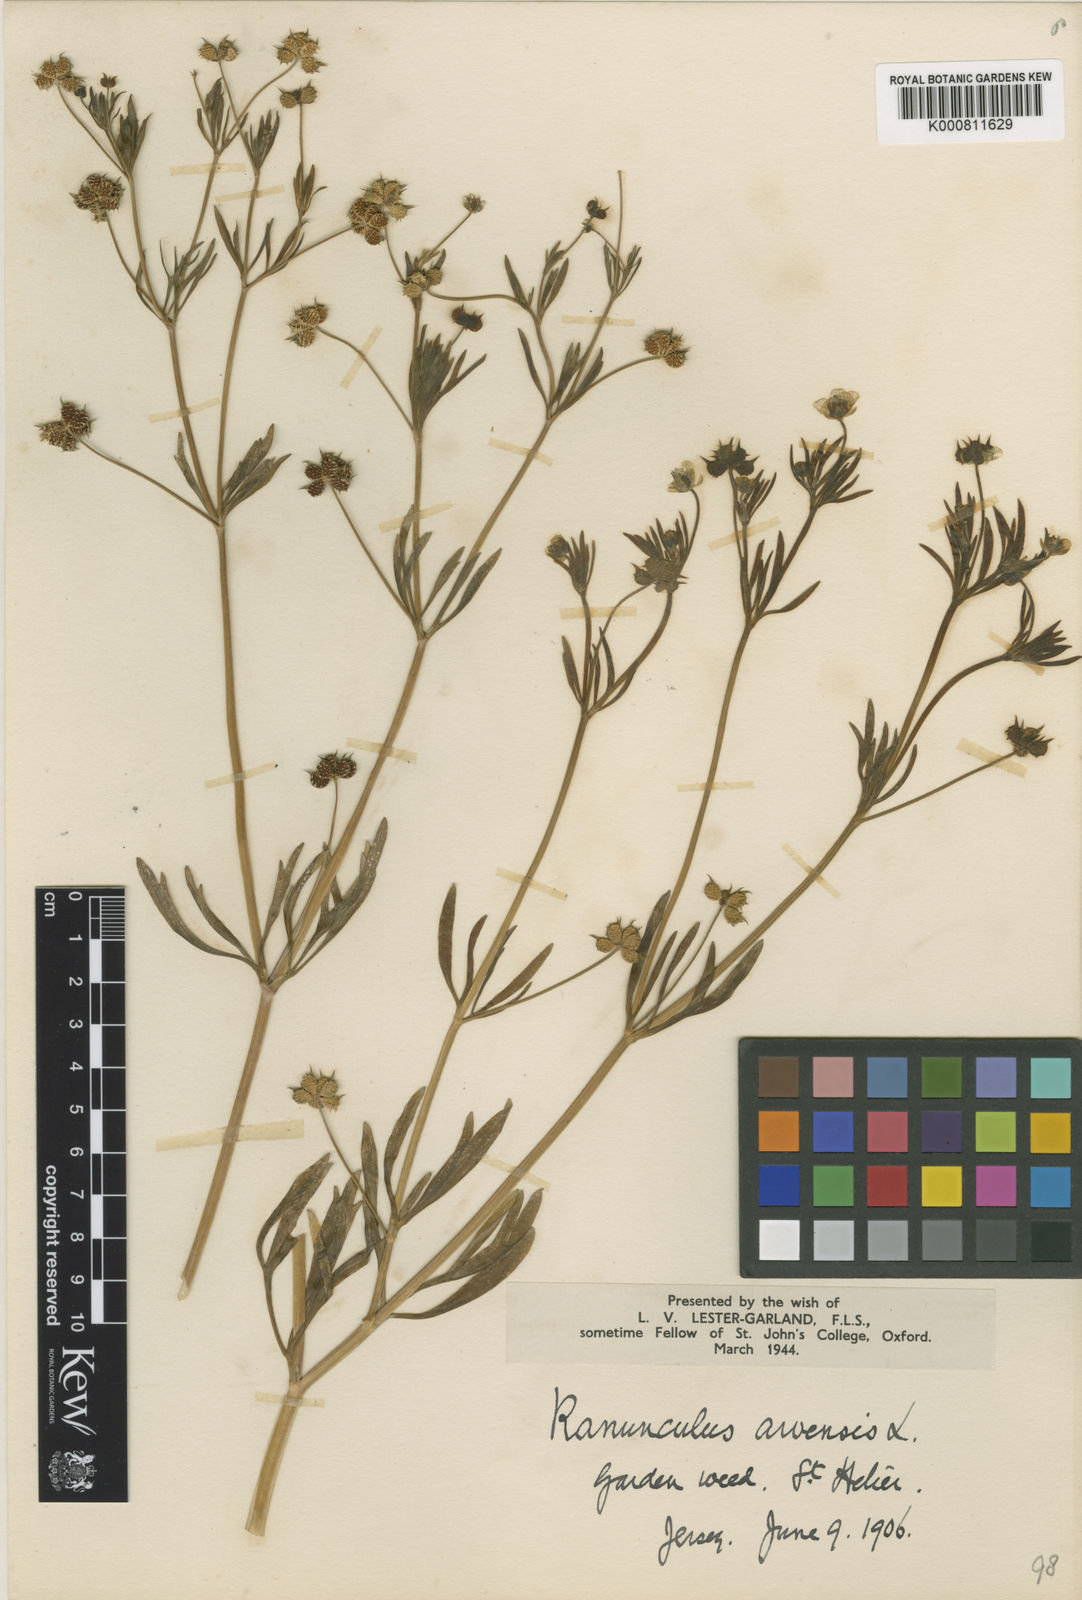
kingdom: Plantae
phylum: Tracheophyta
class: Magnoliopsida
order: Ranunculales
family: Ranunculaceae
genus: Ranunculus
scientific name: Ranunculus arvensis
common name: Corn buttercup
